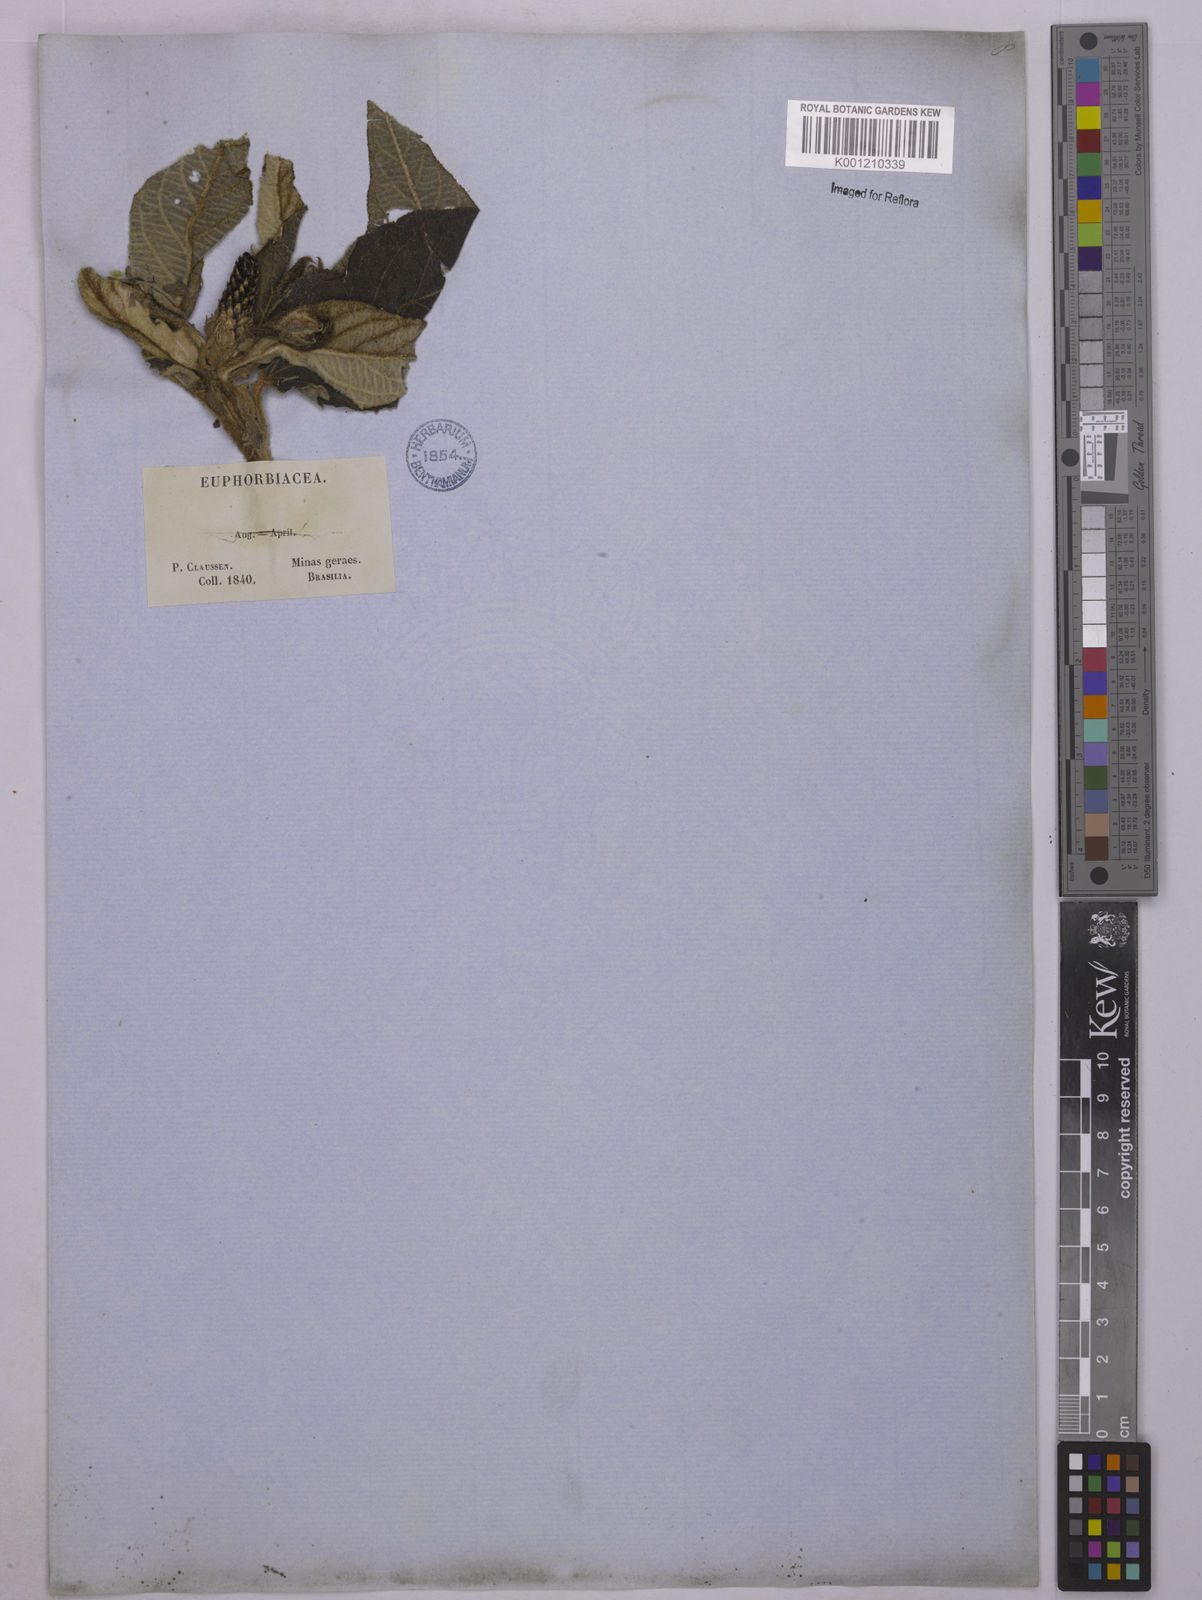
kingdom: Plantae
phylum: Tracheophyta
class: Magnoliopsida
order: Malpighiales
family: Euphorbiaceae
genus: Croton
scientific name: Croton gnaphaloides
